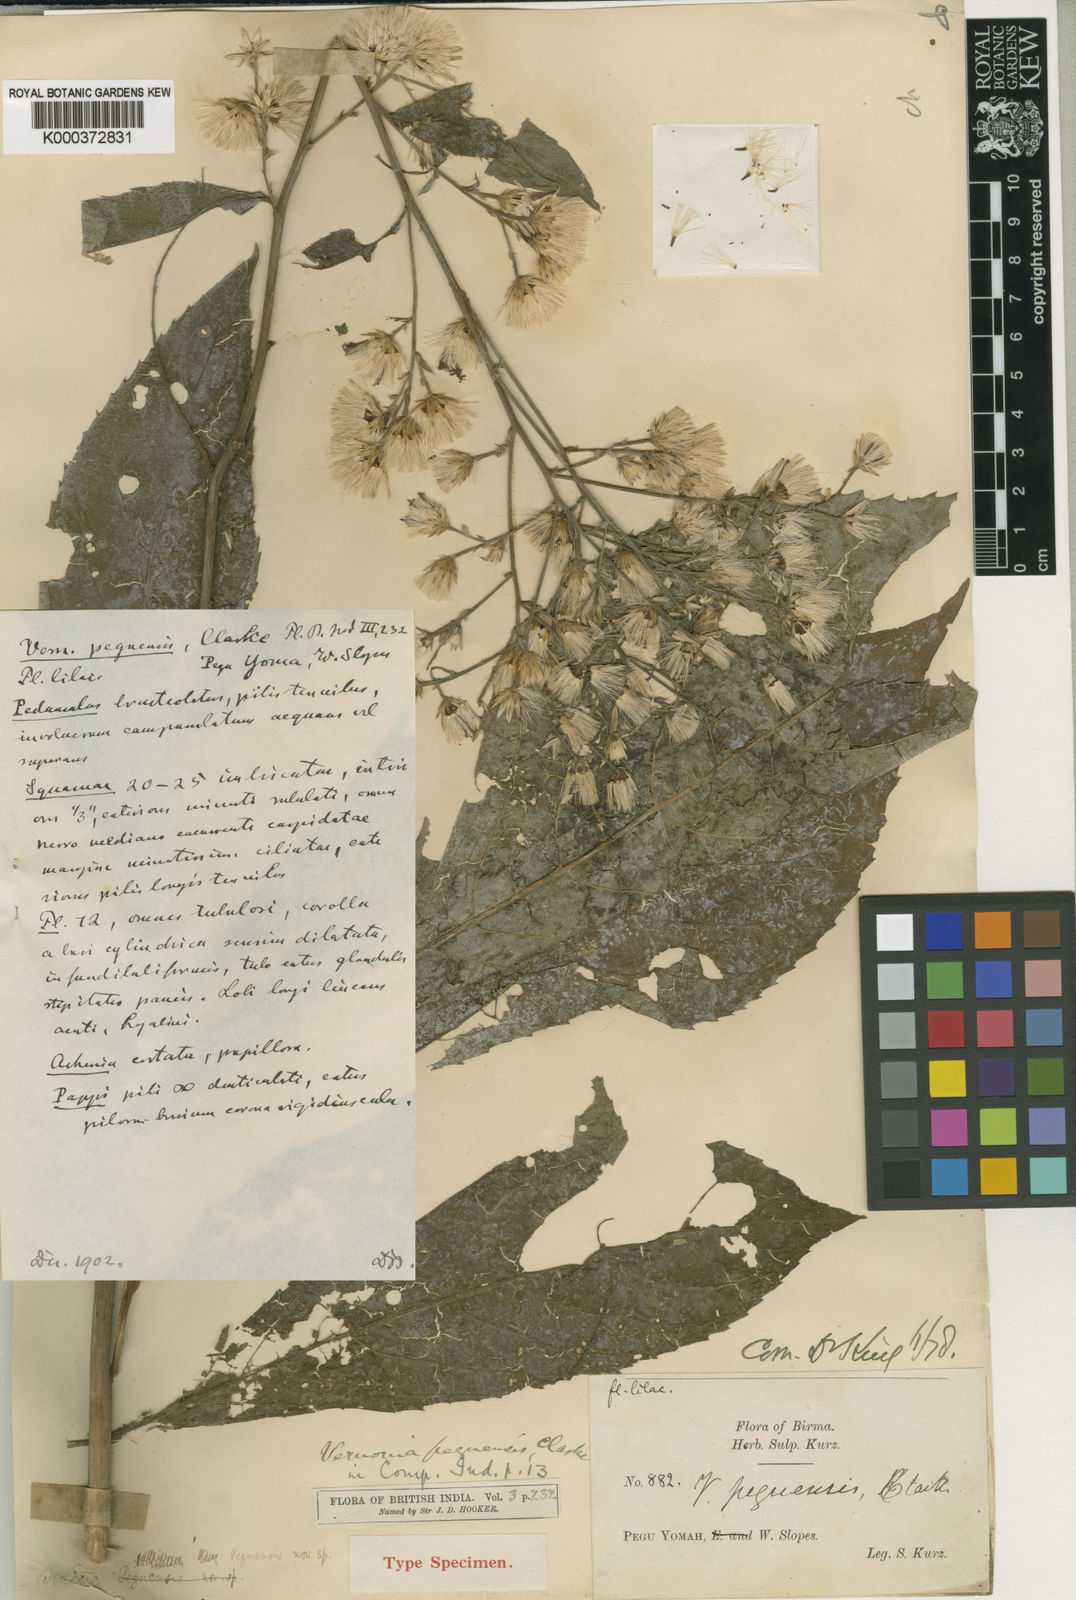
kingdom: Plantae
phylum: Tracheophyta
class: Magnoliopsida
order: Asterales
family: Asteraceae
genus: Acilepis
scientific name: Acilepis peguensis
